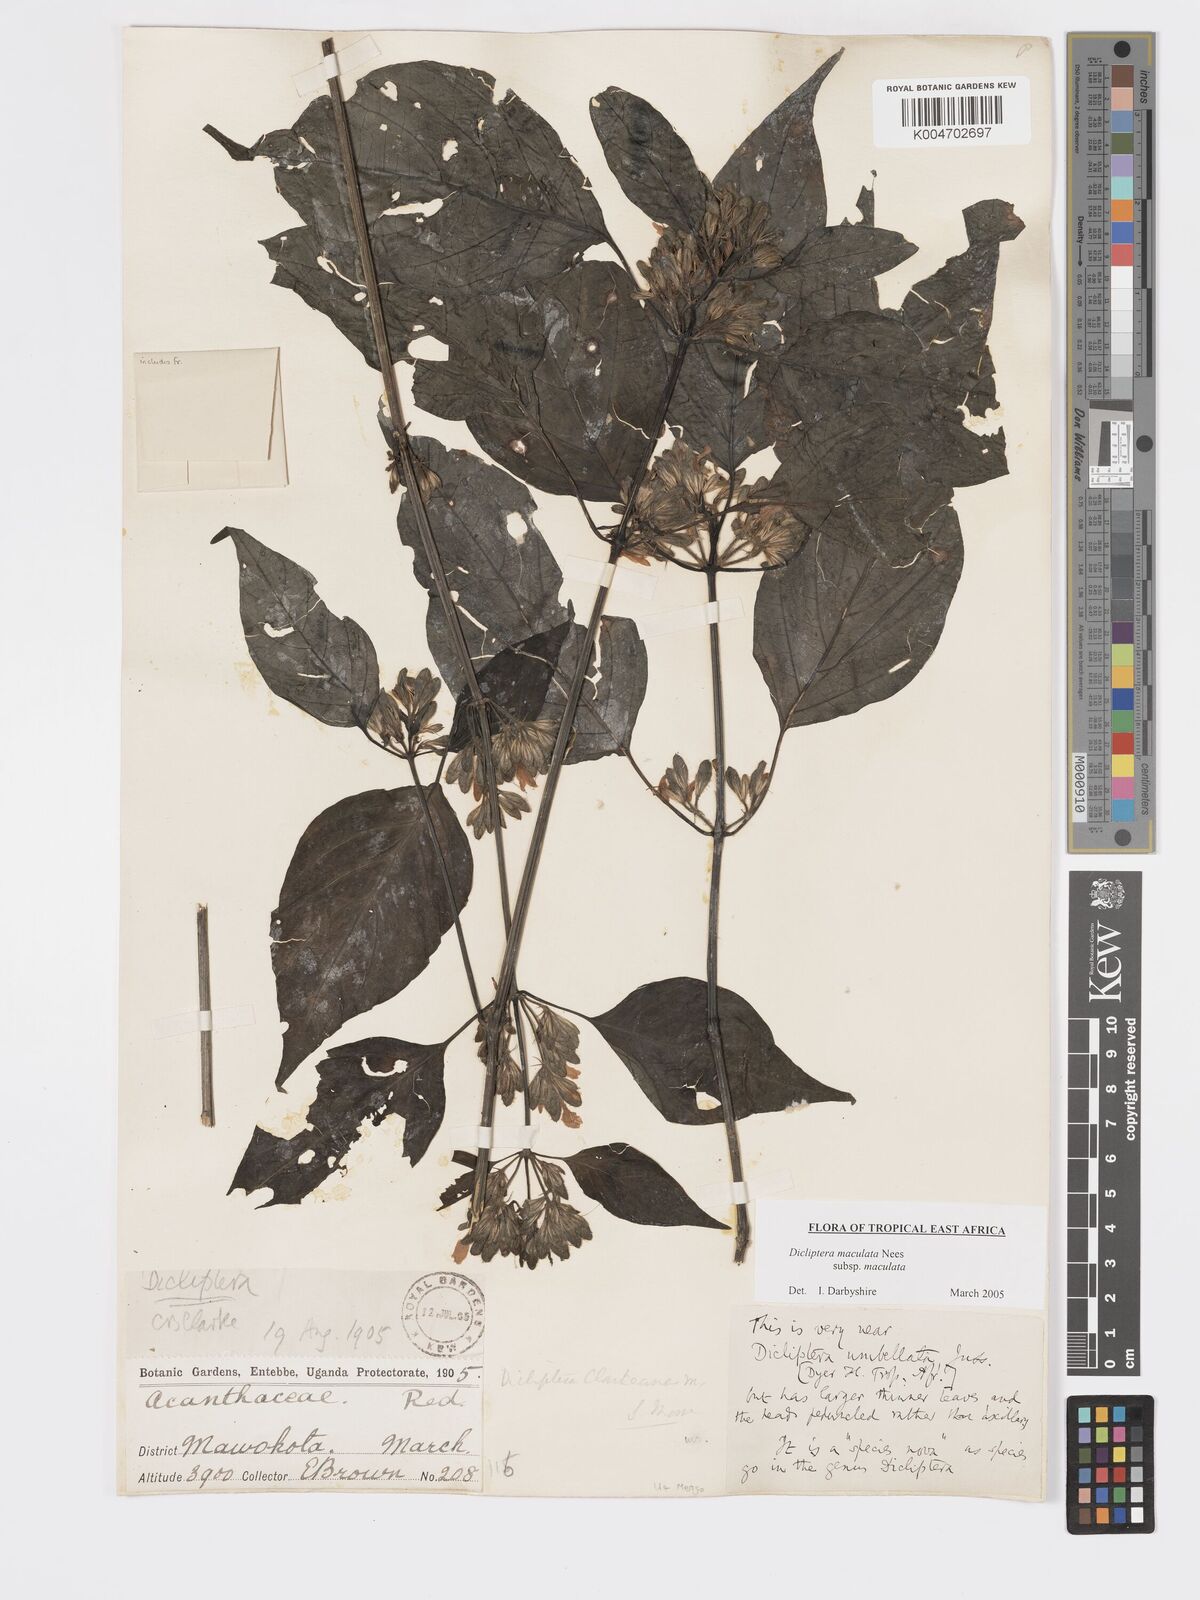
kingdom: Plantae
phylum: Tracheophyta
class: Magnoliopsida
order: Lamiales
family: Acanthaceae
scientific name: Acanthaceae
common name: Acanthaceae
